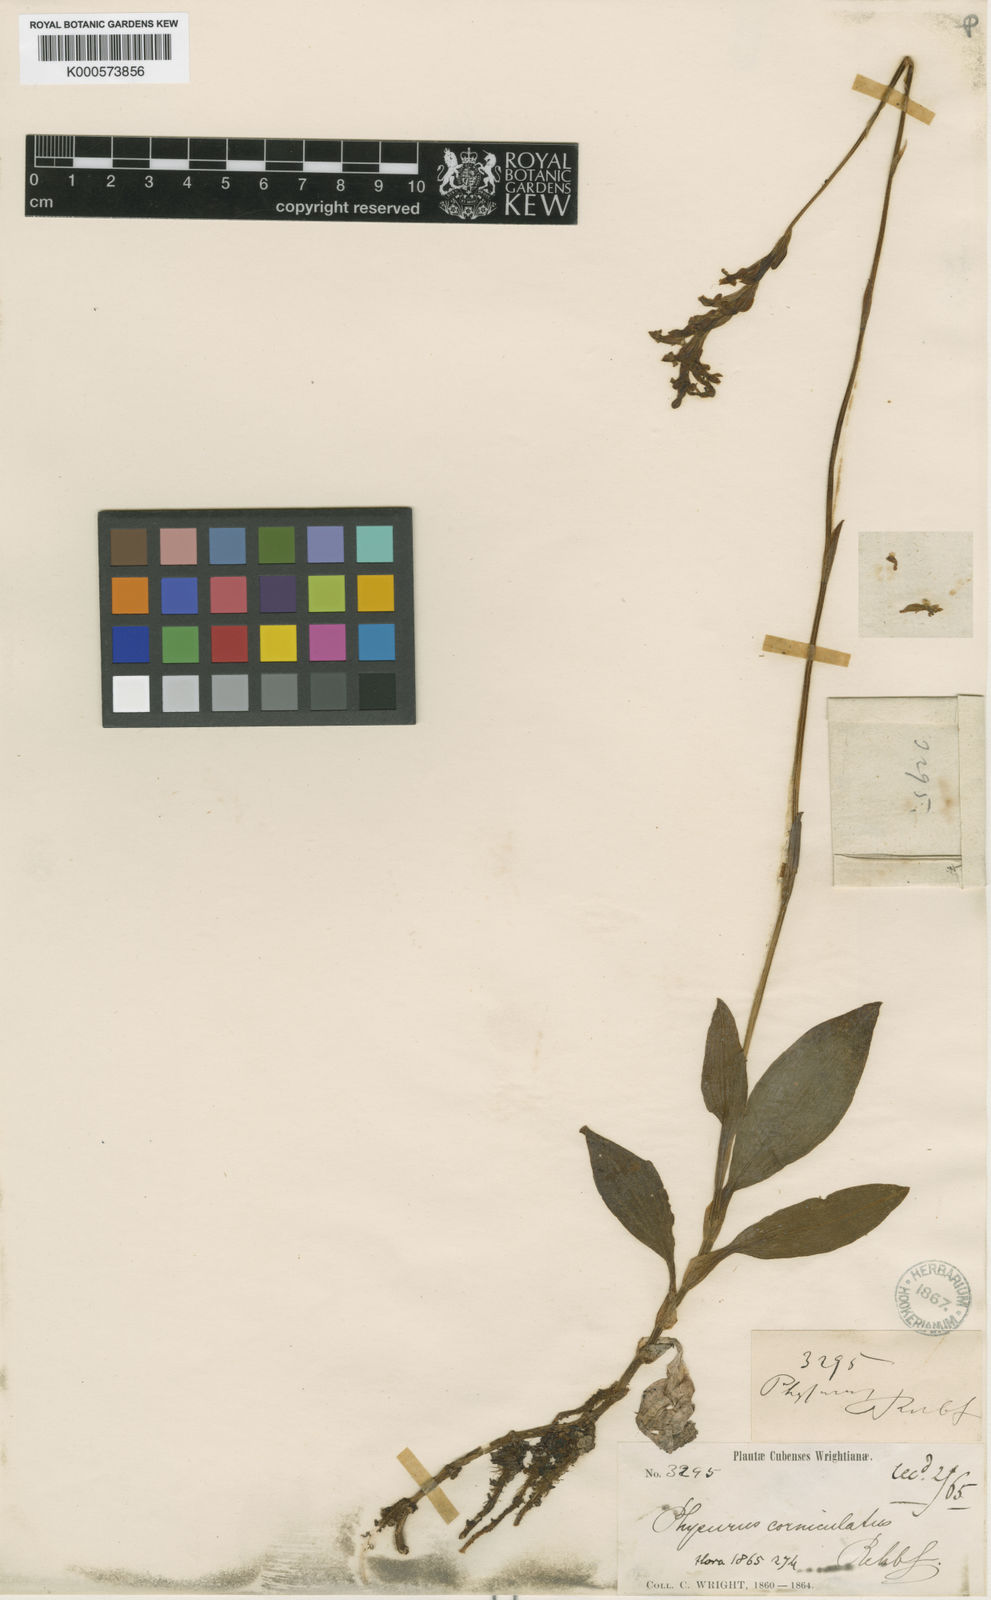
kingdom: Plantae
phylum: Tracheophyta
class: Liliopsida
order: Asparagales
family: Orchidaceae
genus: Goodyera
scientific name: Goodyera corniculata
